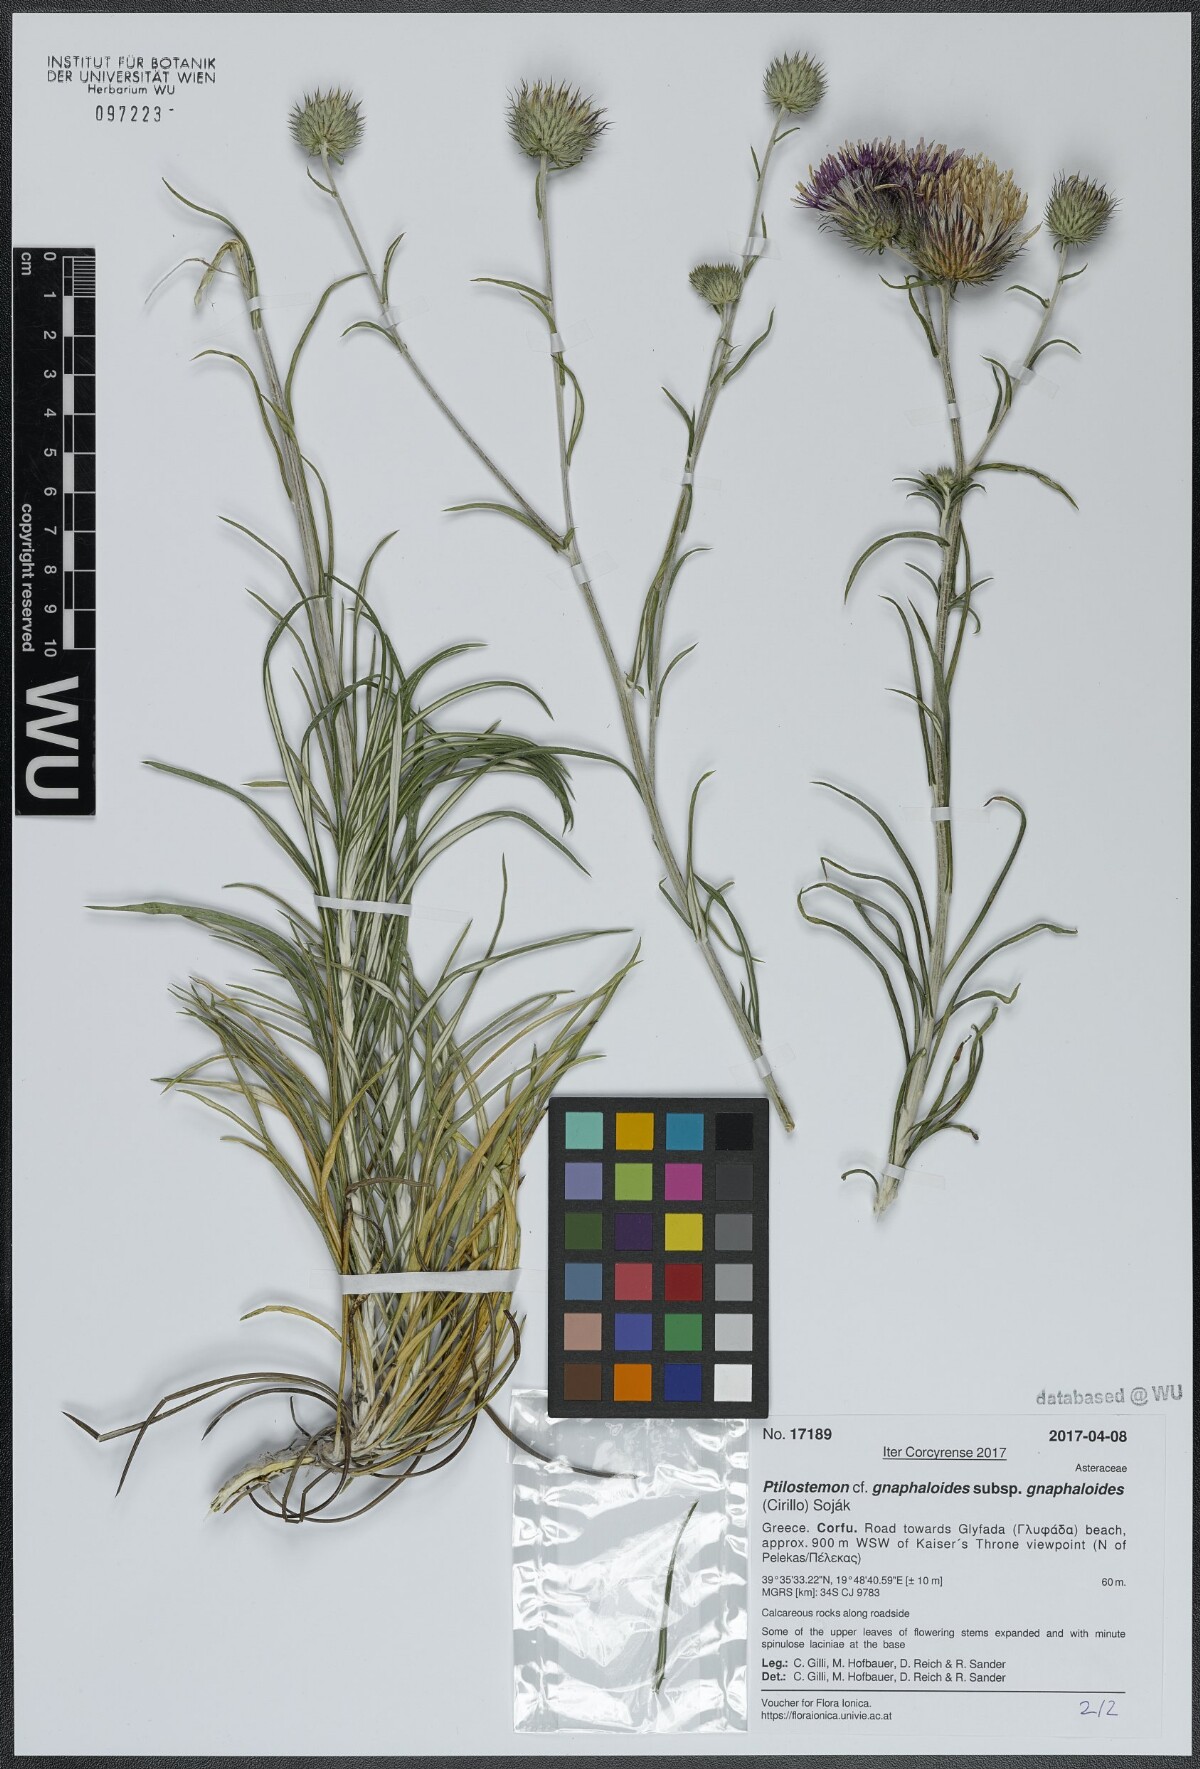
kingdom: Plantae
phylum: Tracheophyta
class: Magnoliopsida
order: Asterales
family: Asteraceae
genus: Ptilostemon
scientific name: Ptilostemon gnaphaloides
